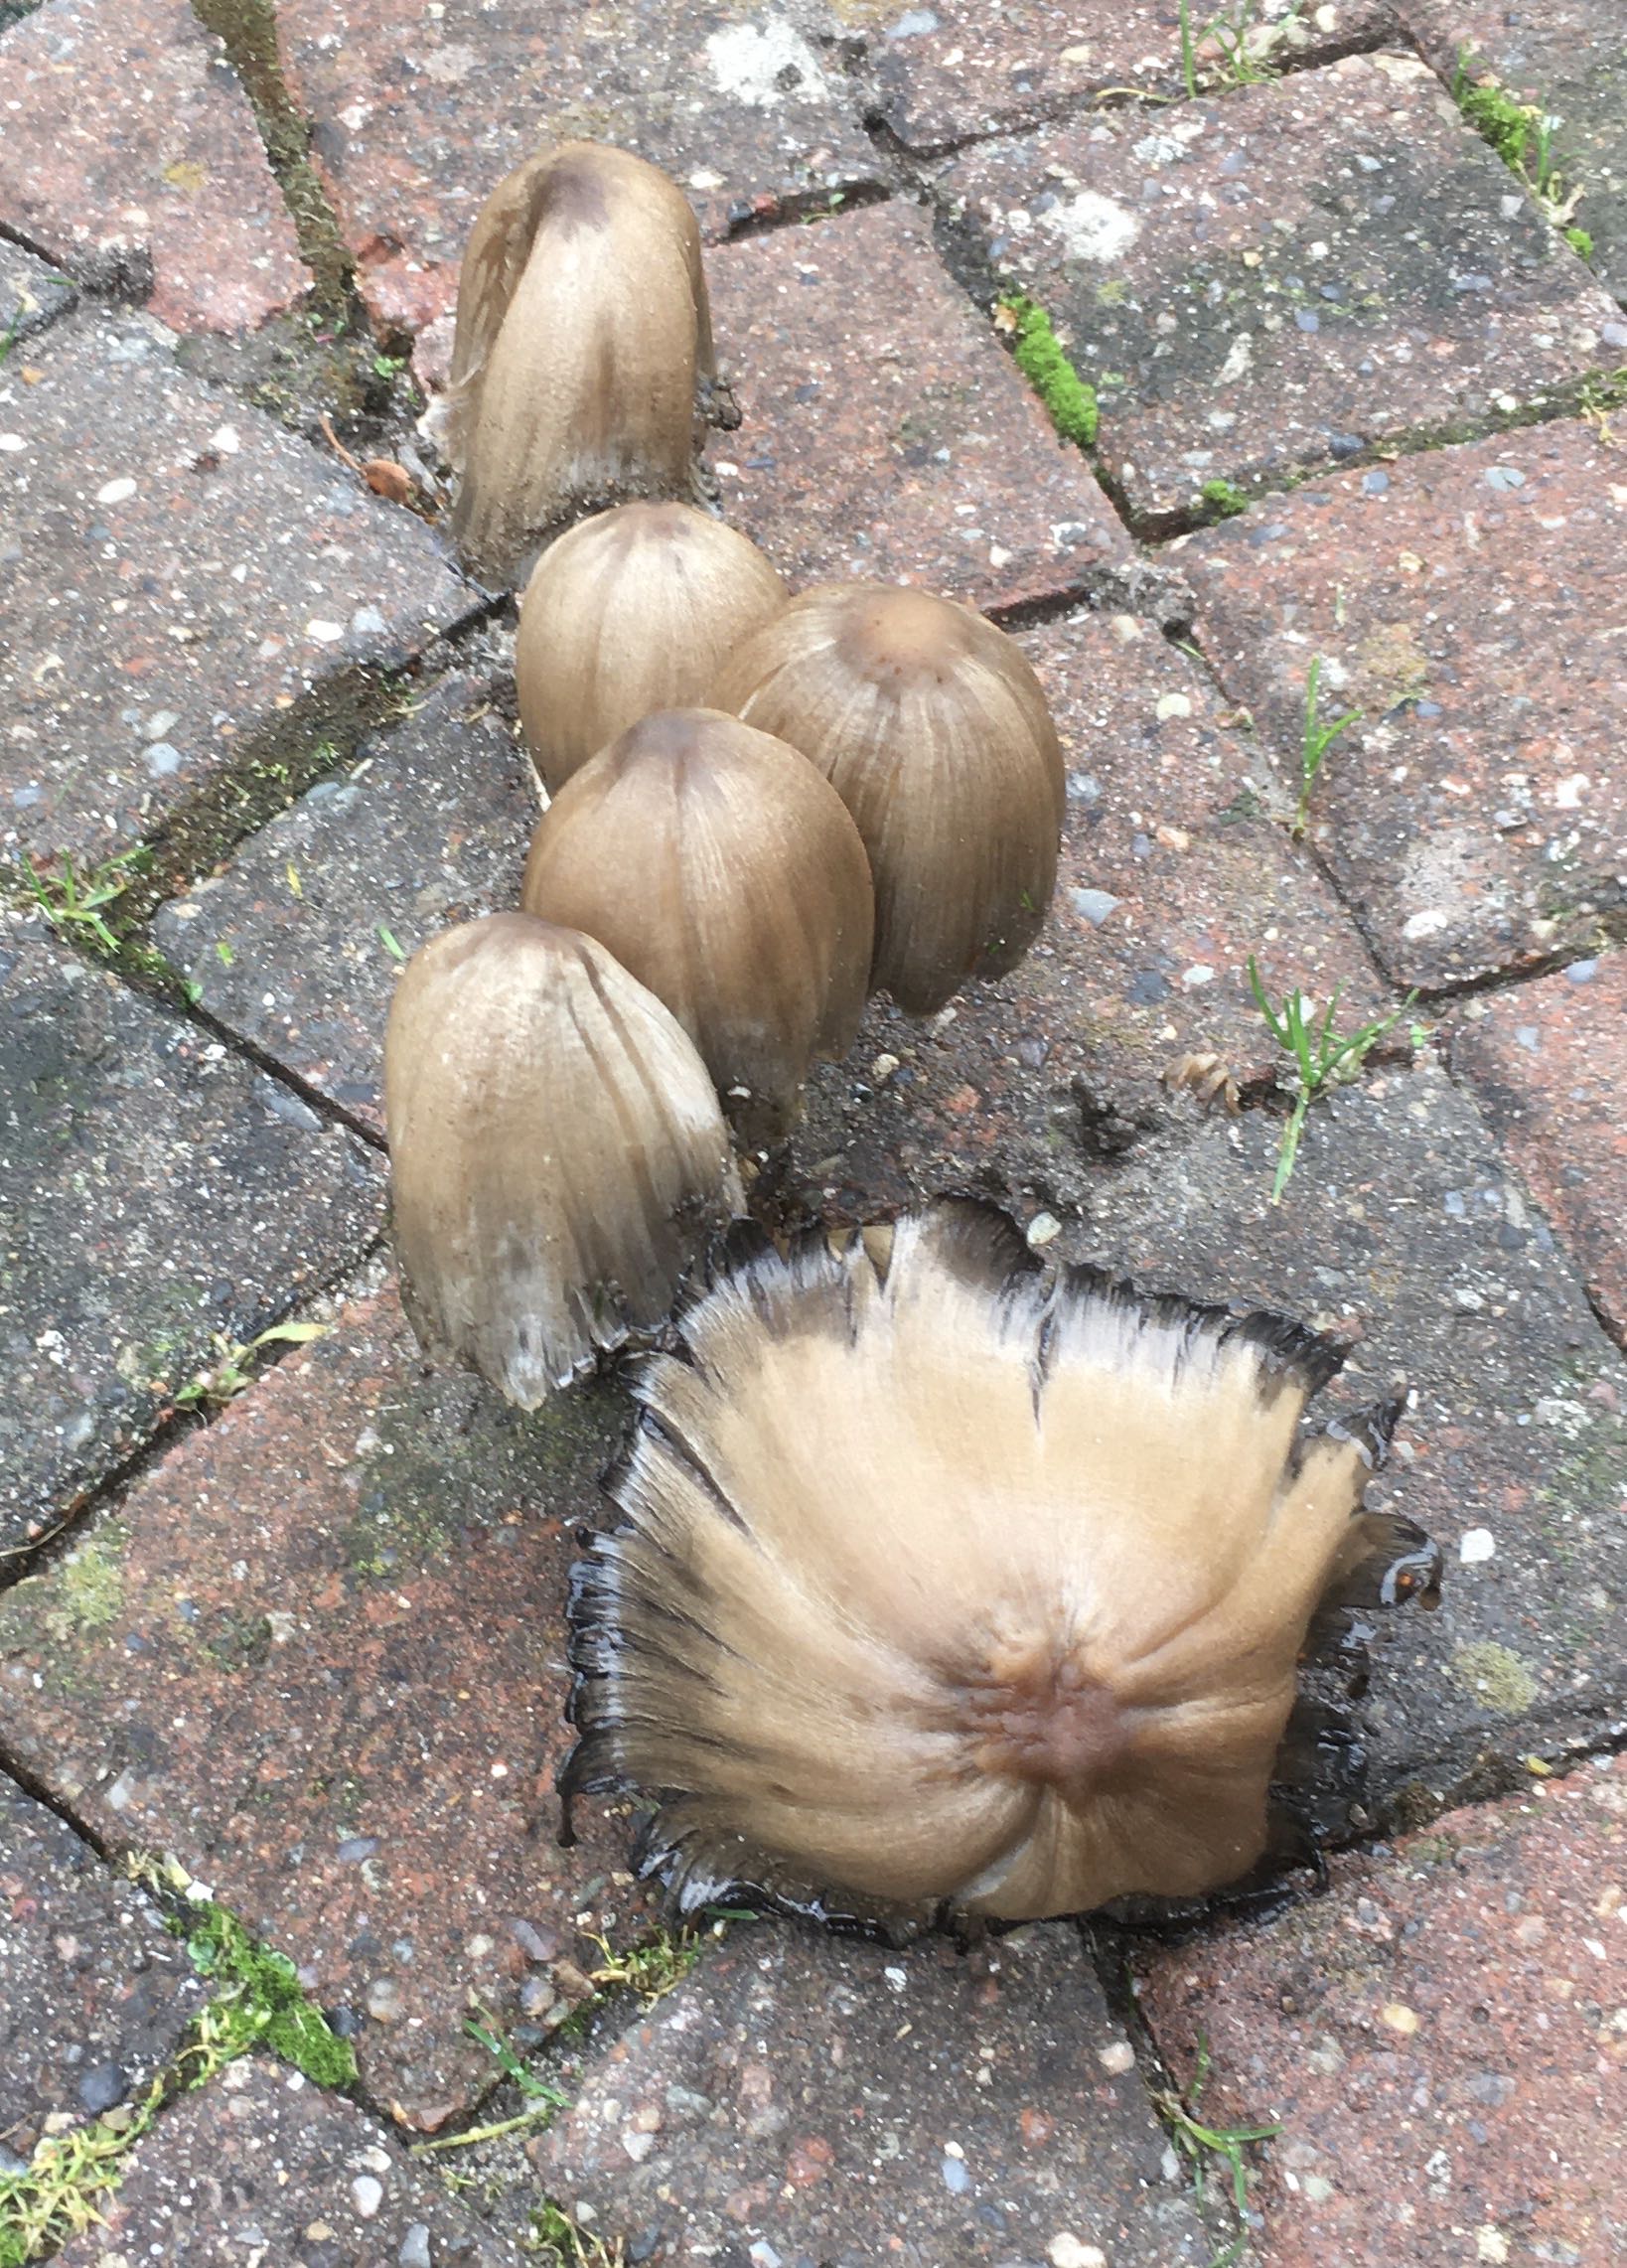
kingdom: Fungi
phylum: Basidiomycota
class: Agaricomycetes
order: Agaricales
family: Psathyrellaceae
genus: Coprinopsis
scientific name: Coprinopsis atramentaria
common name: almindelig blækhat
